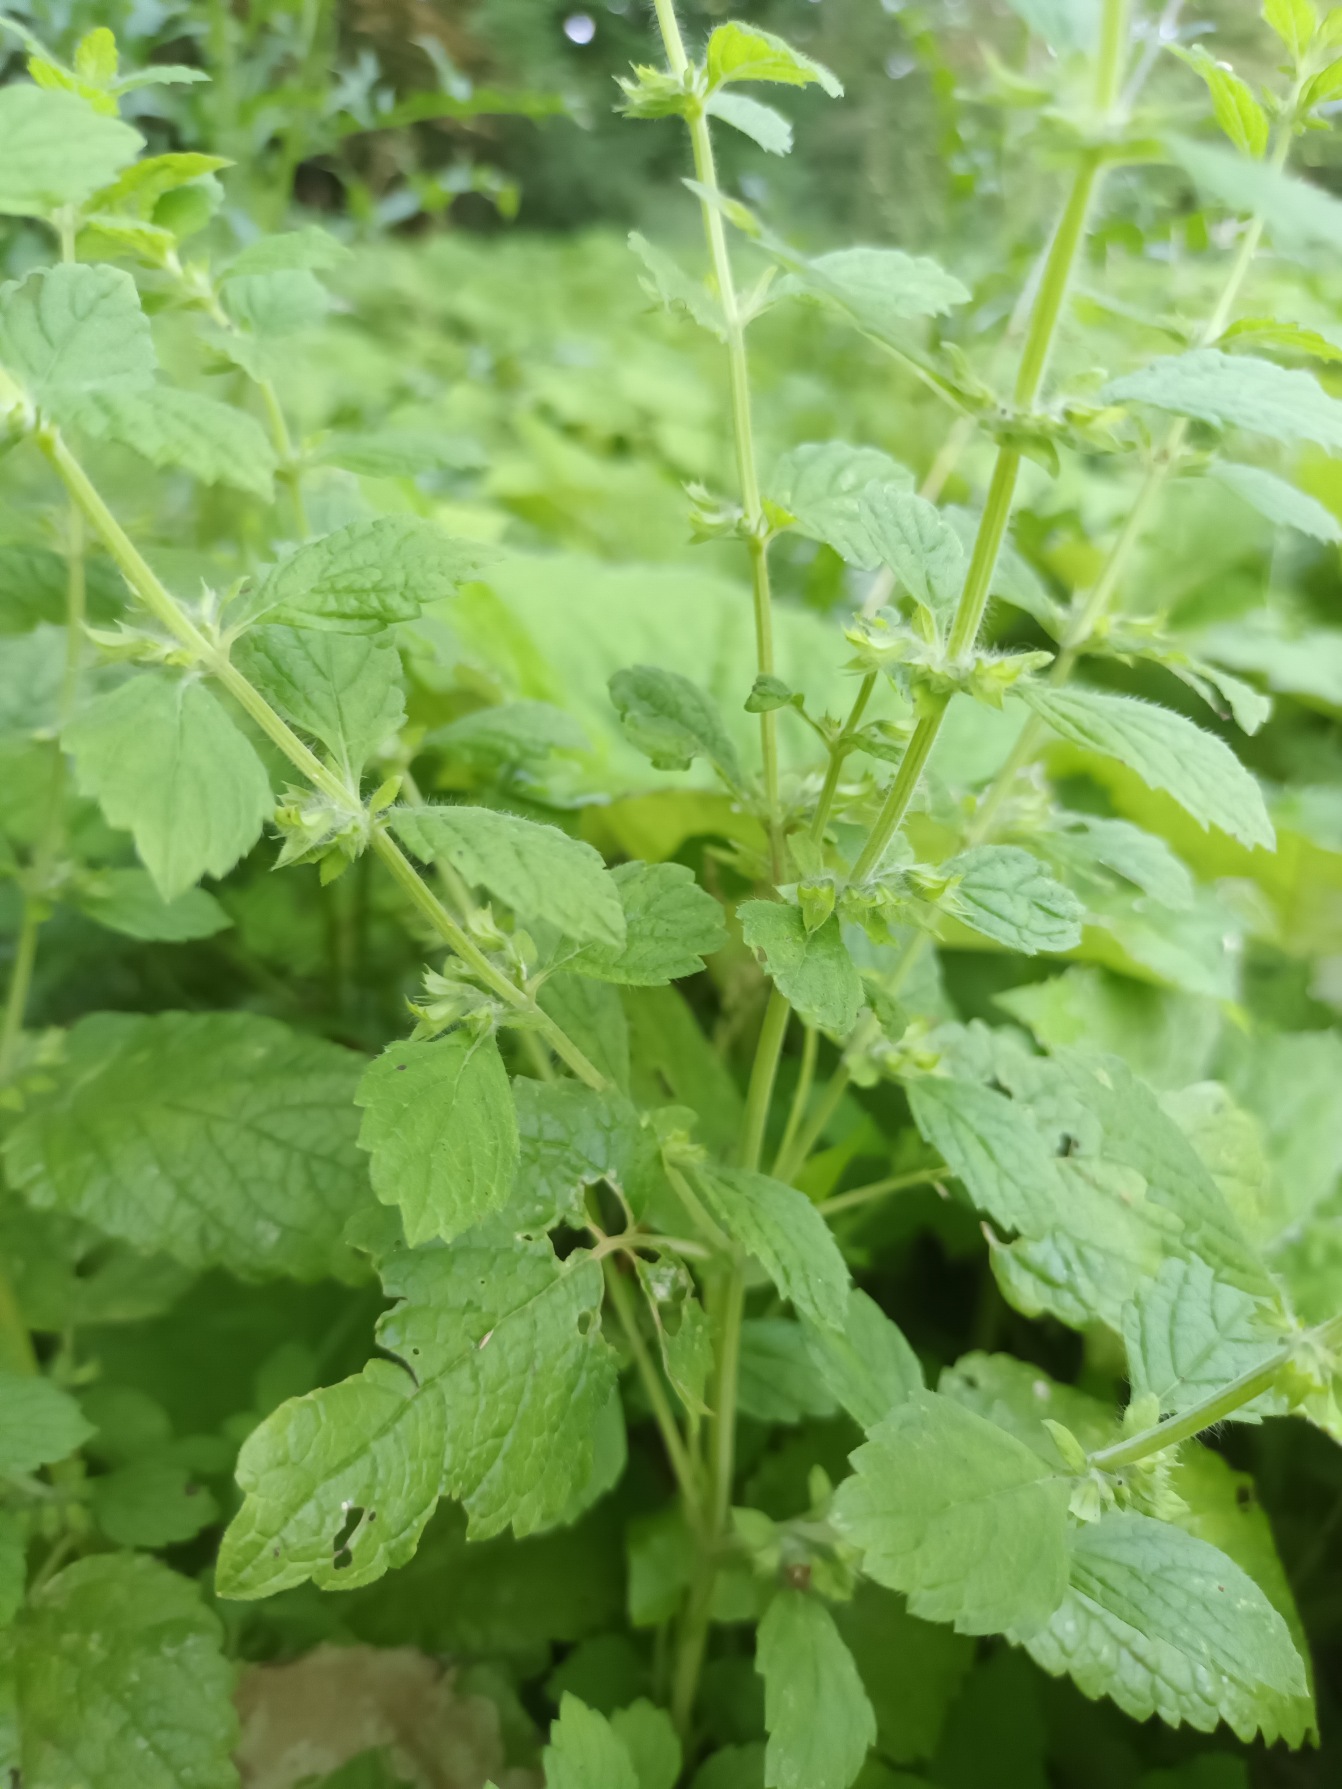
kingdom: Plantae
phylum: Tracheophyta
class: Magnoliopsida
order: Lamiales
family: Lamiaceae
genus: Melissa
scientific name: Melissa officinalis
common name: Citronmelisse
